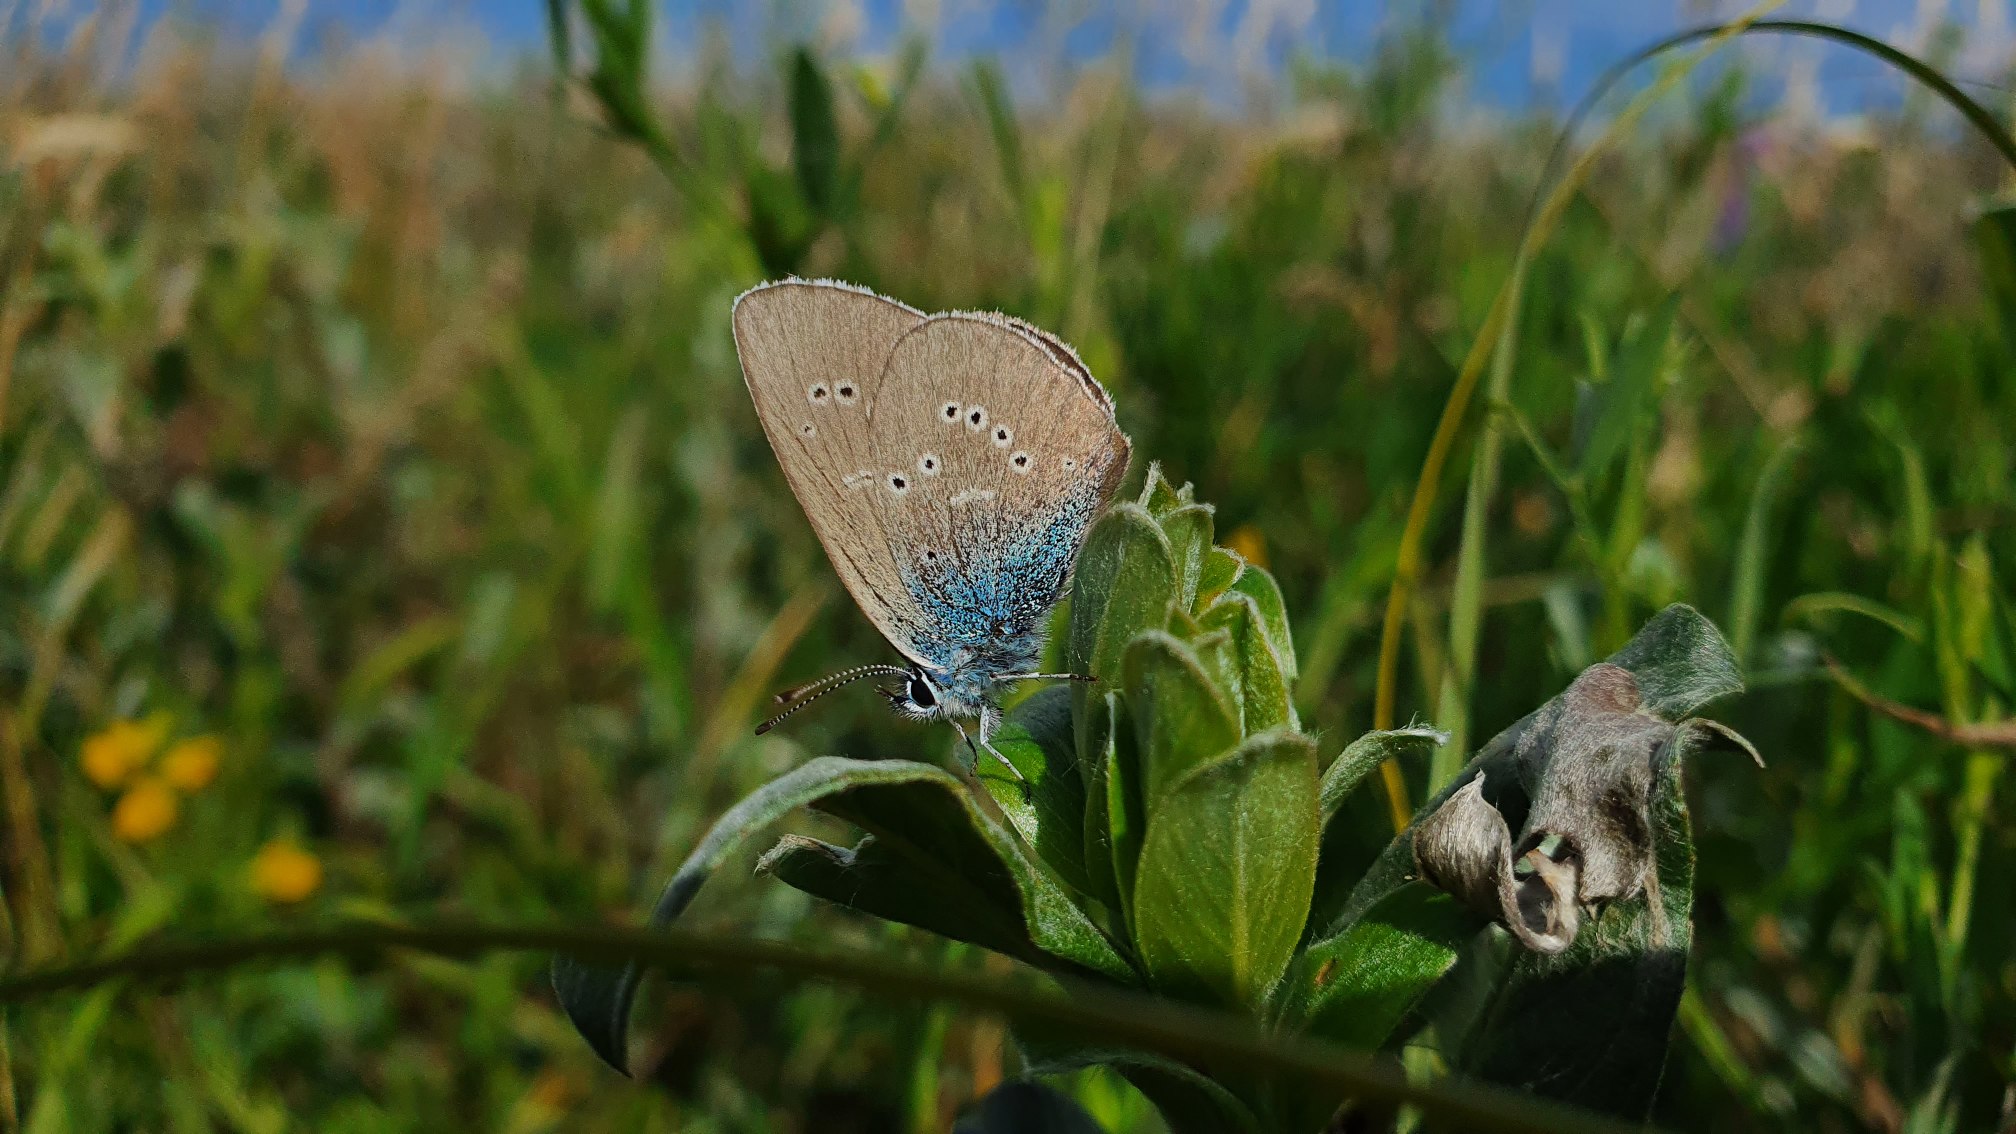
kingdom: Animalia
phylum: Arthropoda
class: Insecta
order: Lepidoptera
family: Lycaenidae
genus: Cyaniris
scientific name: Cyaniris semiargus
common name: Engblåfugl
